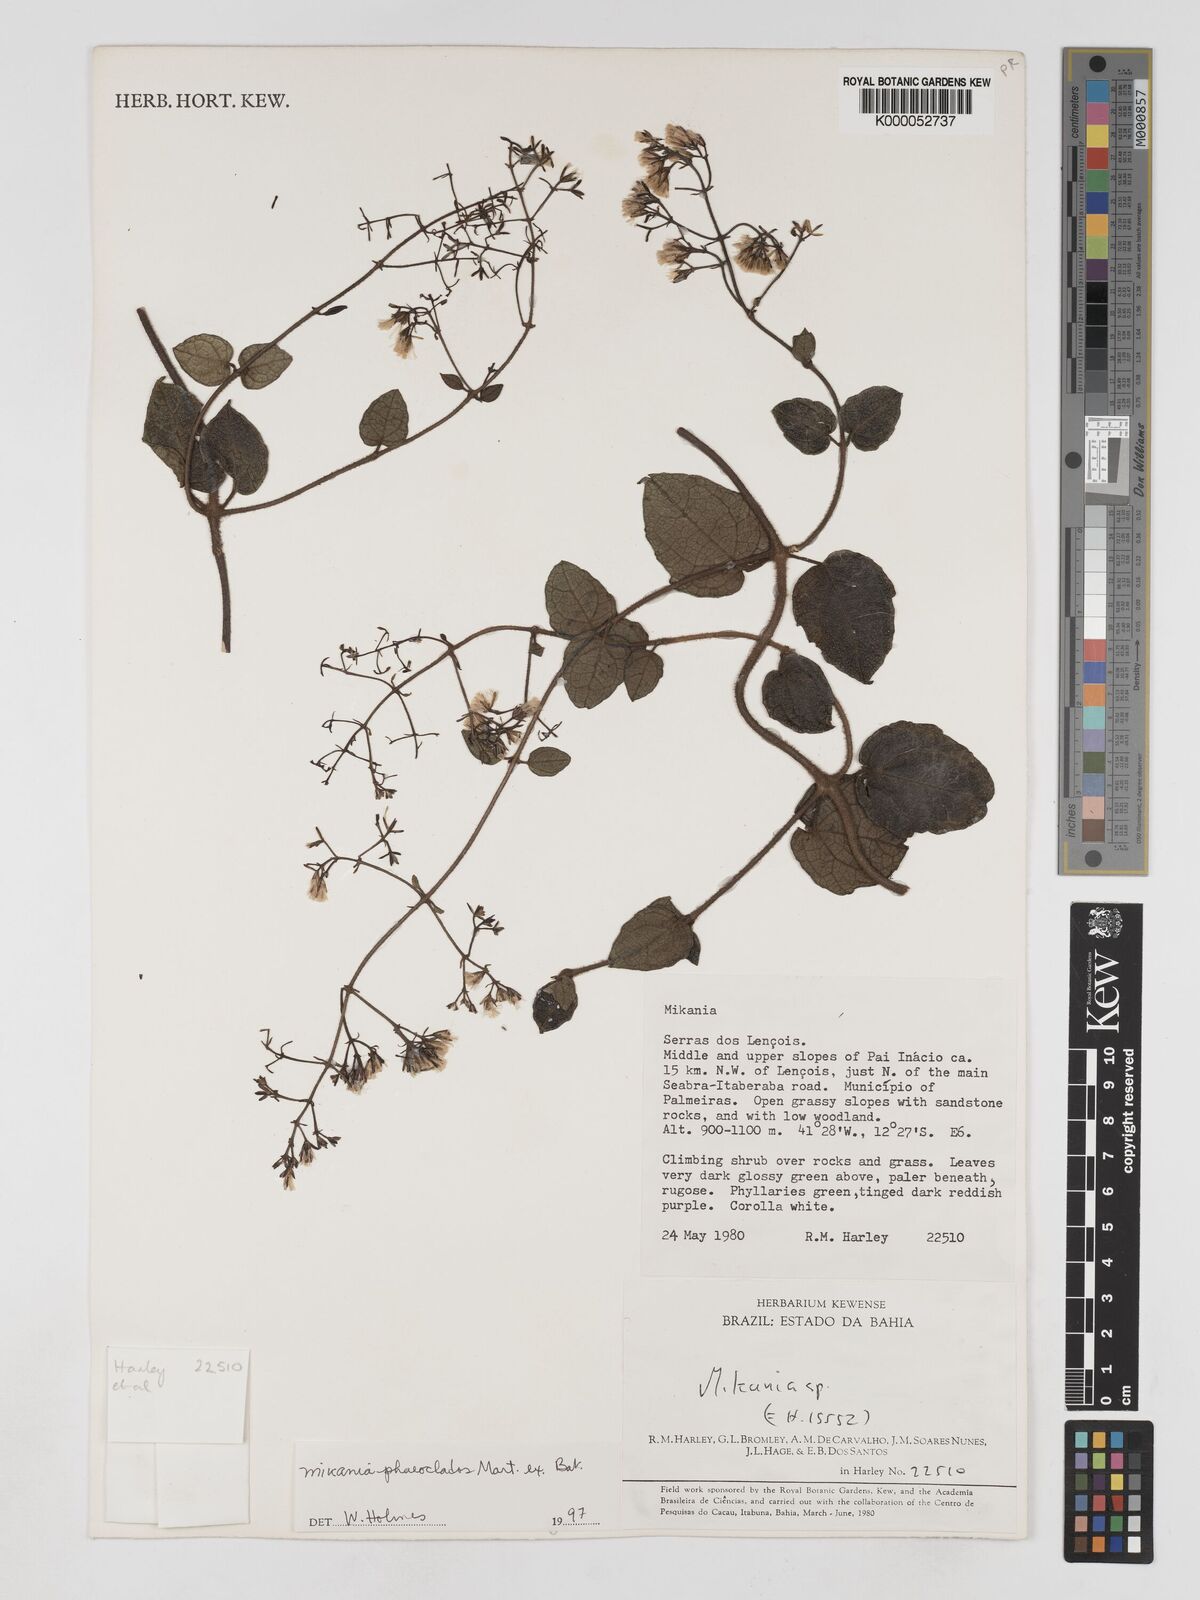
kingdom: Plantae
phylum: Tracheophyta
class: Magnoliopsida
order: Asterales
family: Asteraceae
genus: Mikania
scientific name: Mikania phaeoclados
